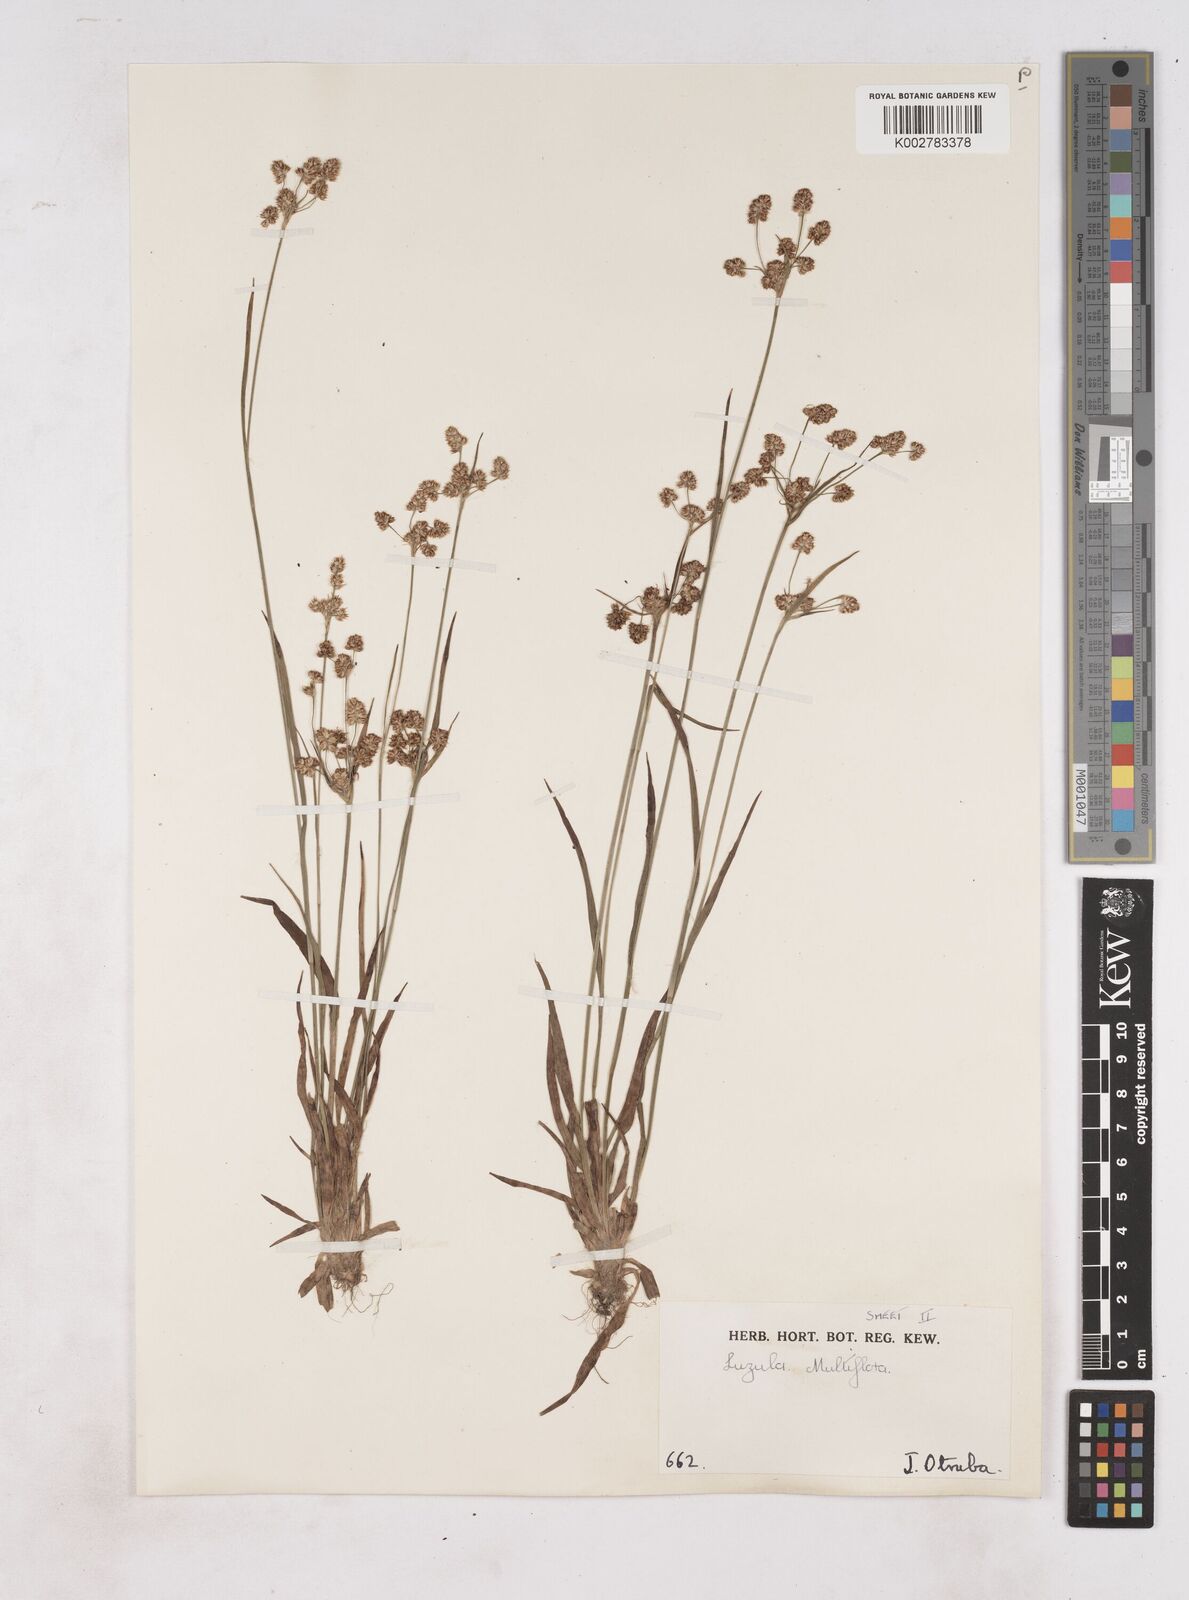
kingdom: Plantae
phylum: Tracheophyta
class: Liliopsida
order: Poales
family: Juncaceae
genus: Luzula
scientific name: Luzula multiflora
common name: Heath wood-rush
